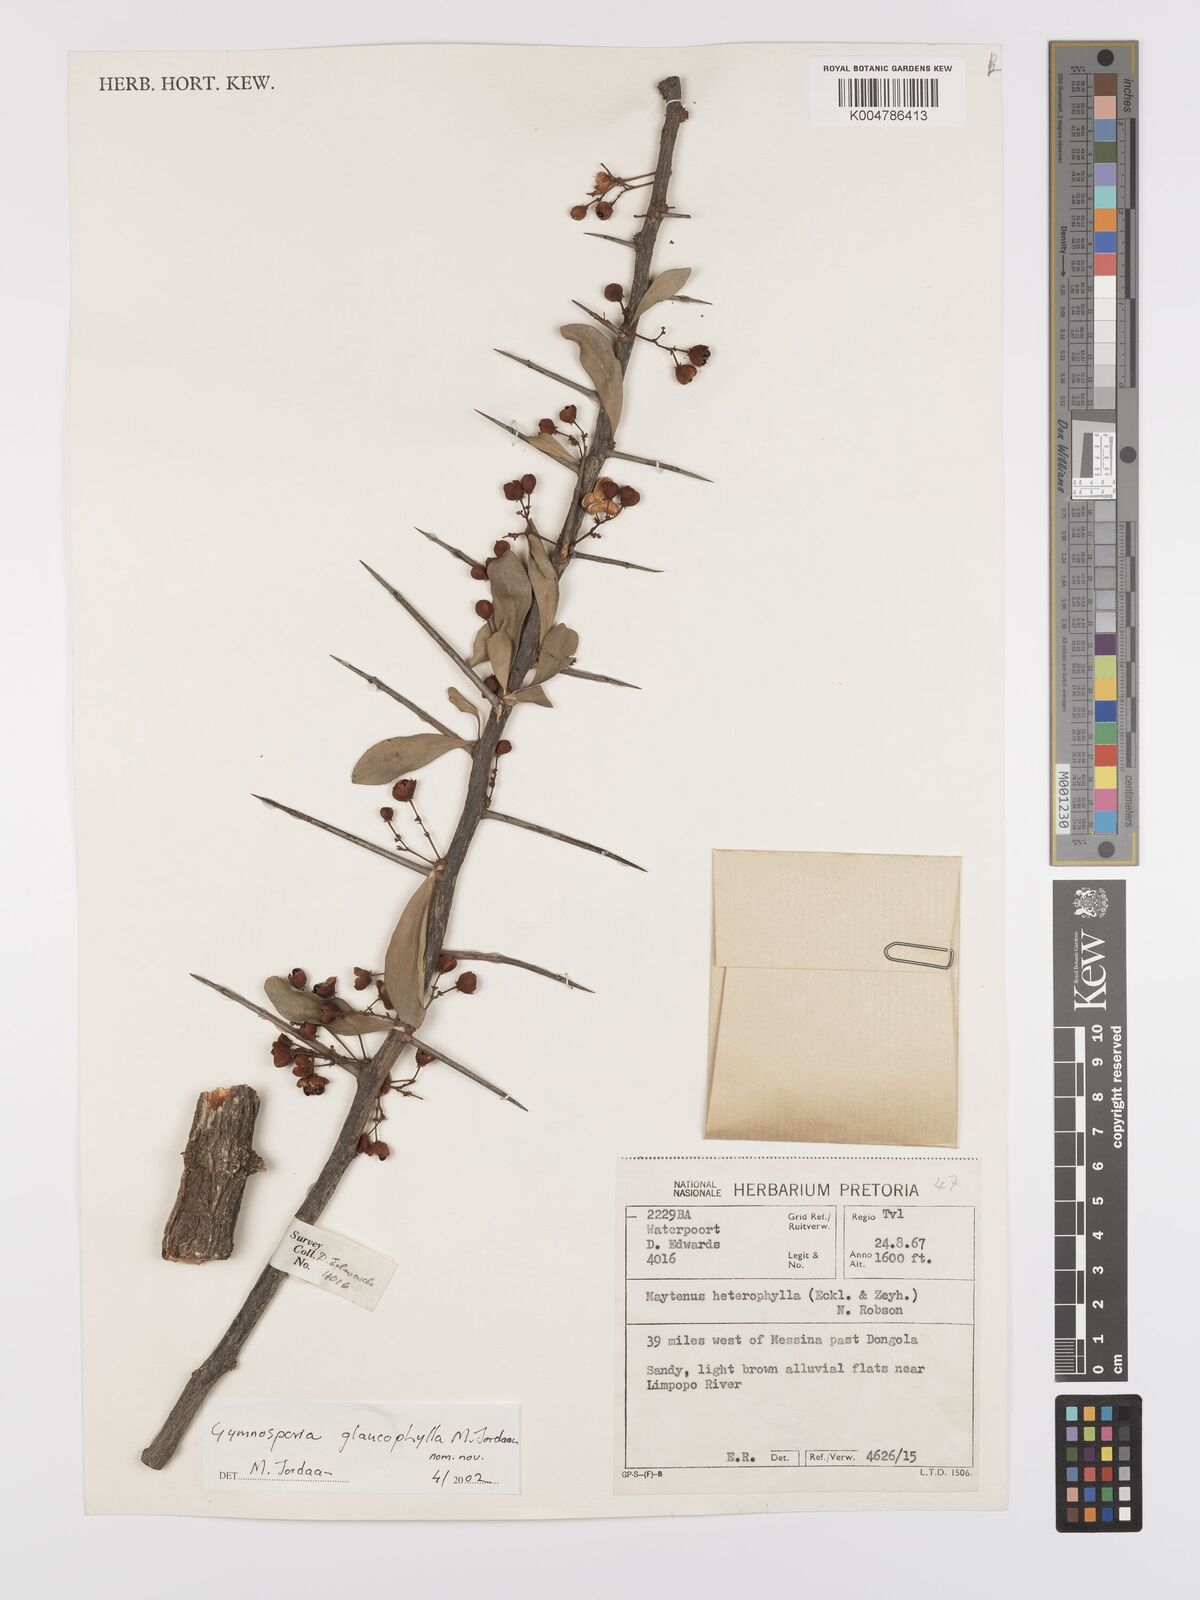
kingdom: Plantae
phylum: Tracheophyta
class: Magnoliopsida
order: Celastrales
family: Celastraceae
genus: Gymnosporia
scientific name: Gymnosporia glaucophylla
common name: Blue spike-thorn
